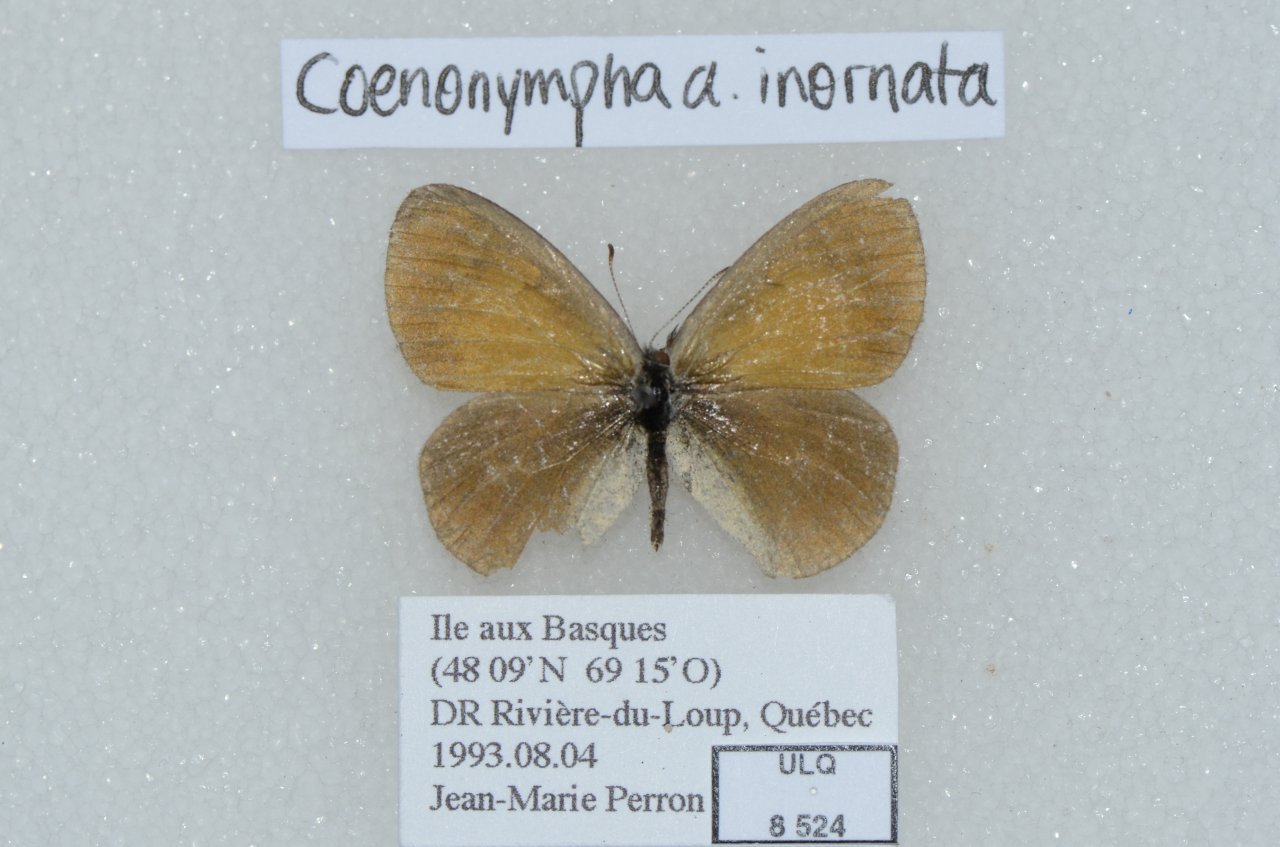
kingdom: Animalia
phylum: Arthropoda
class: Insecta
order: Lepidoptera
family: Nymphalidae
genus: Coenonympha
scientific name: Coenonympha tullia
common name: Large Heath
